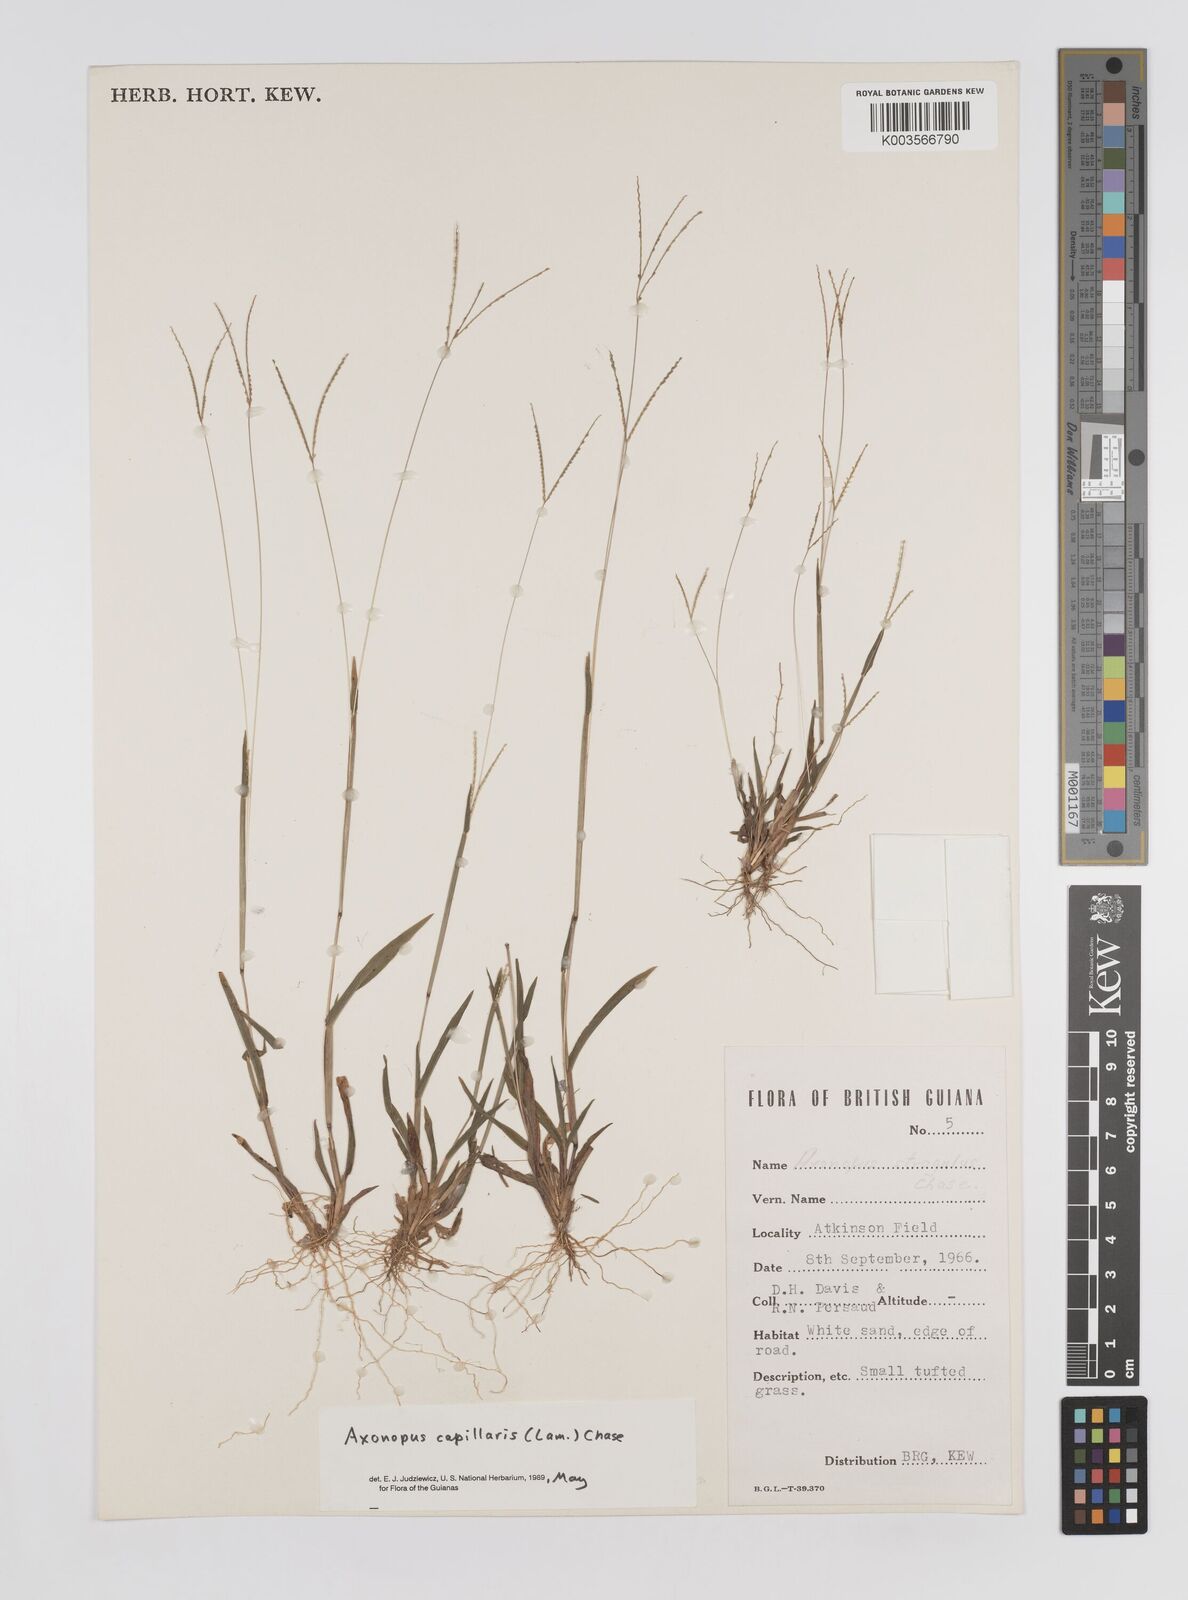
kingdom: Plantae
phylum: Tracheophyta
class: Liliopsida
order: Poales
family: Poaceae
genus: Axonopus
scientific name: Axonopus capillaris
